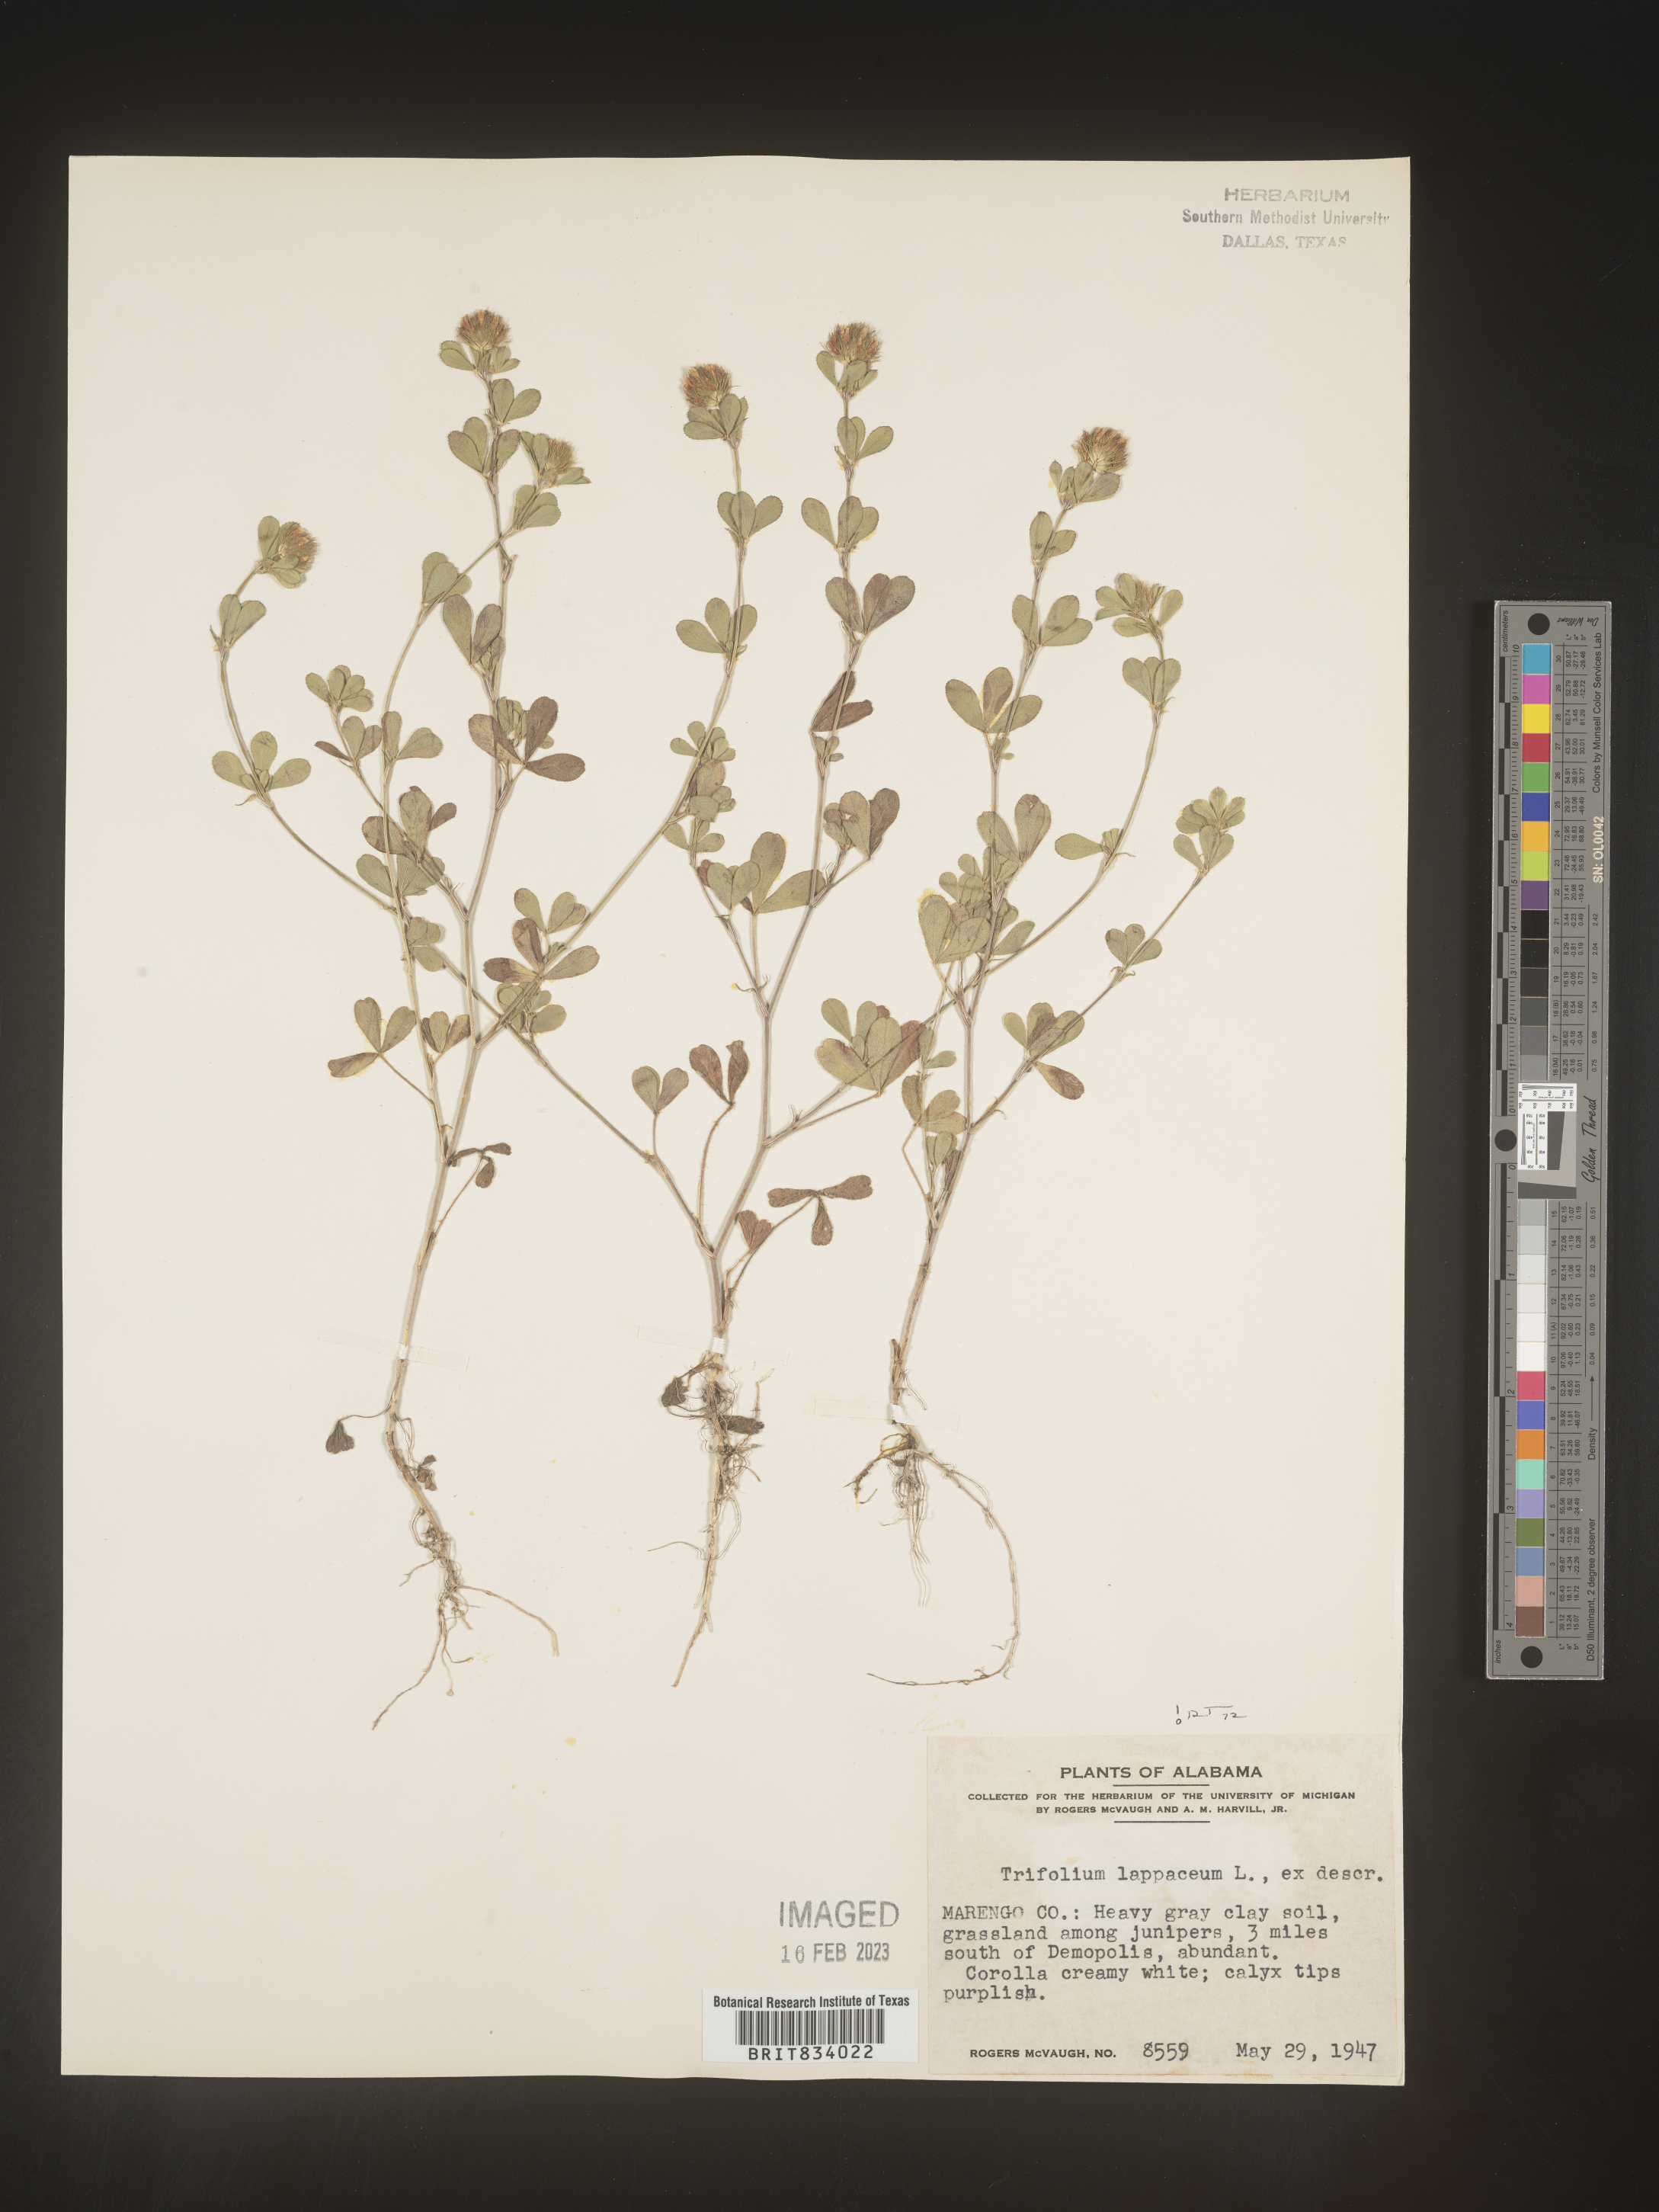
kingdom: Plantae
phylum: Tracheophyta
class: Magnoliopsida
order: Fabales
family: Fabaceae
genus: Trifolium
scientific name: Trifolium
